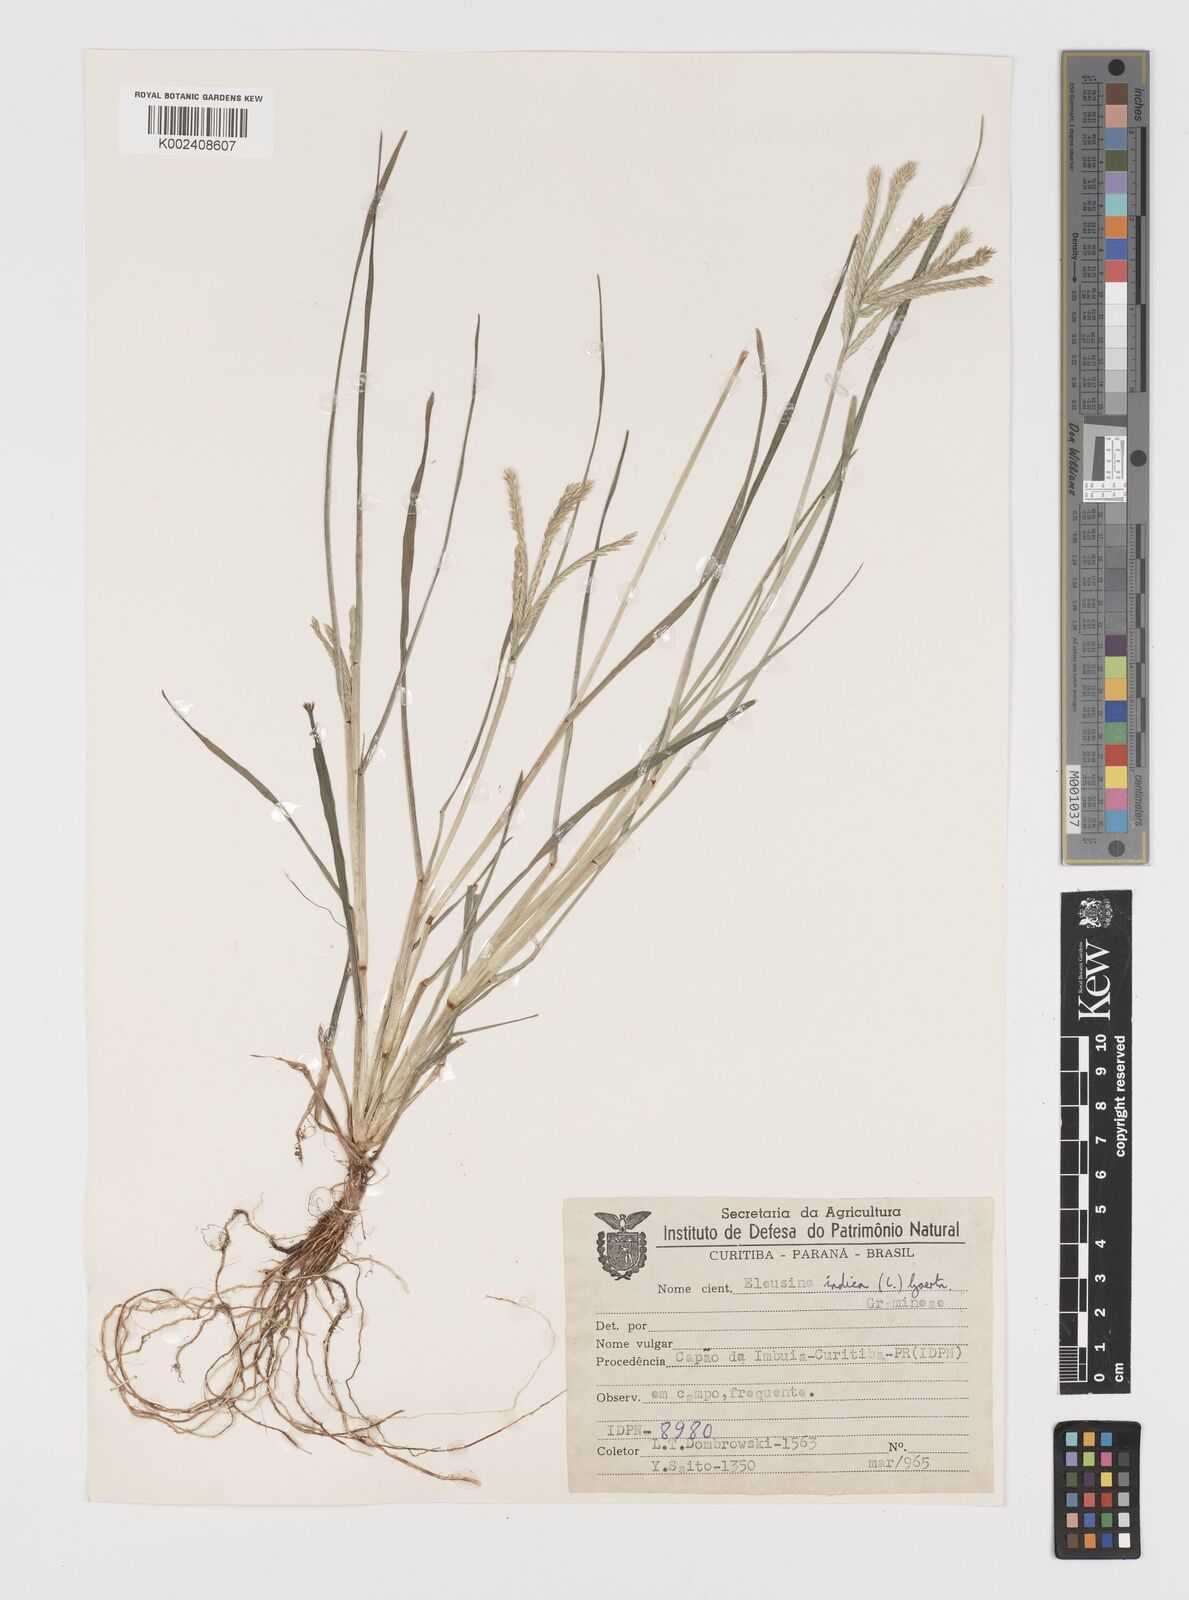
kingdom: Plantae
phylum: Tracheophyta
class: Liliopsida
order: Poales
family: Poaceae
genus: Eleusine
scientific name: Eleusine indica
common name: Yard-grass
